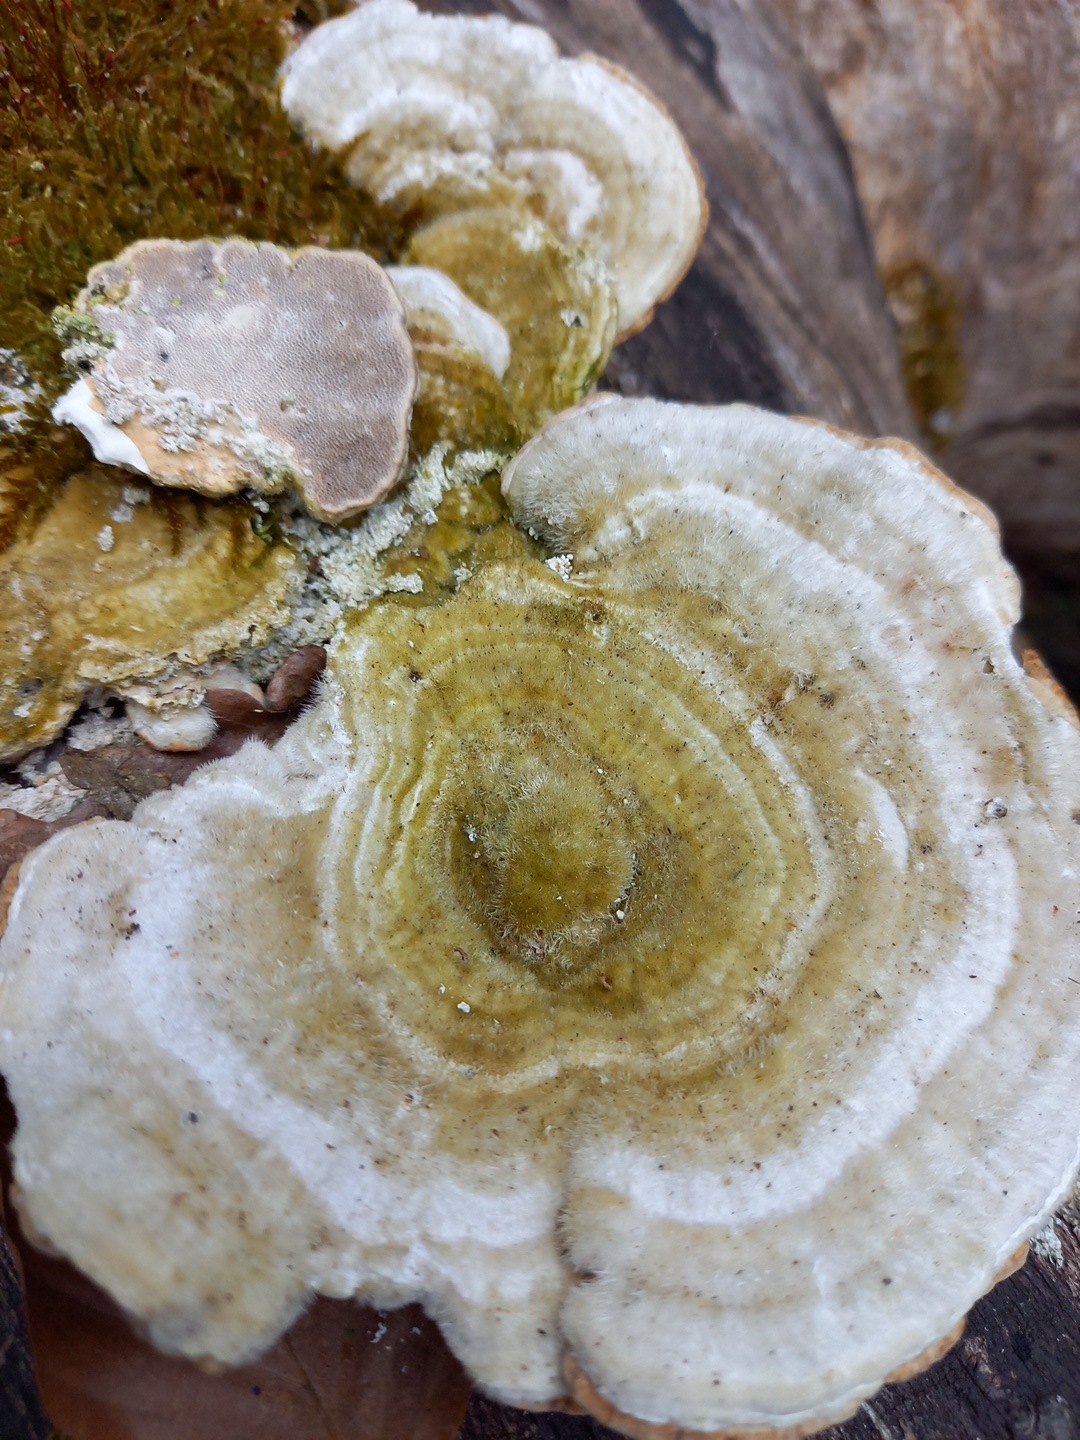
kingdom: Fungi
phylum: Basidiomycota
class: Agaricomycetes
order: Polyporales
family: Polyporaceae
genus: Trametes
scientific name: Trametes hirsuta
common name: håret læderporesvamp
